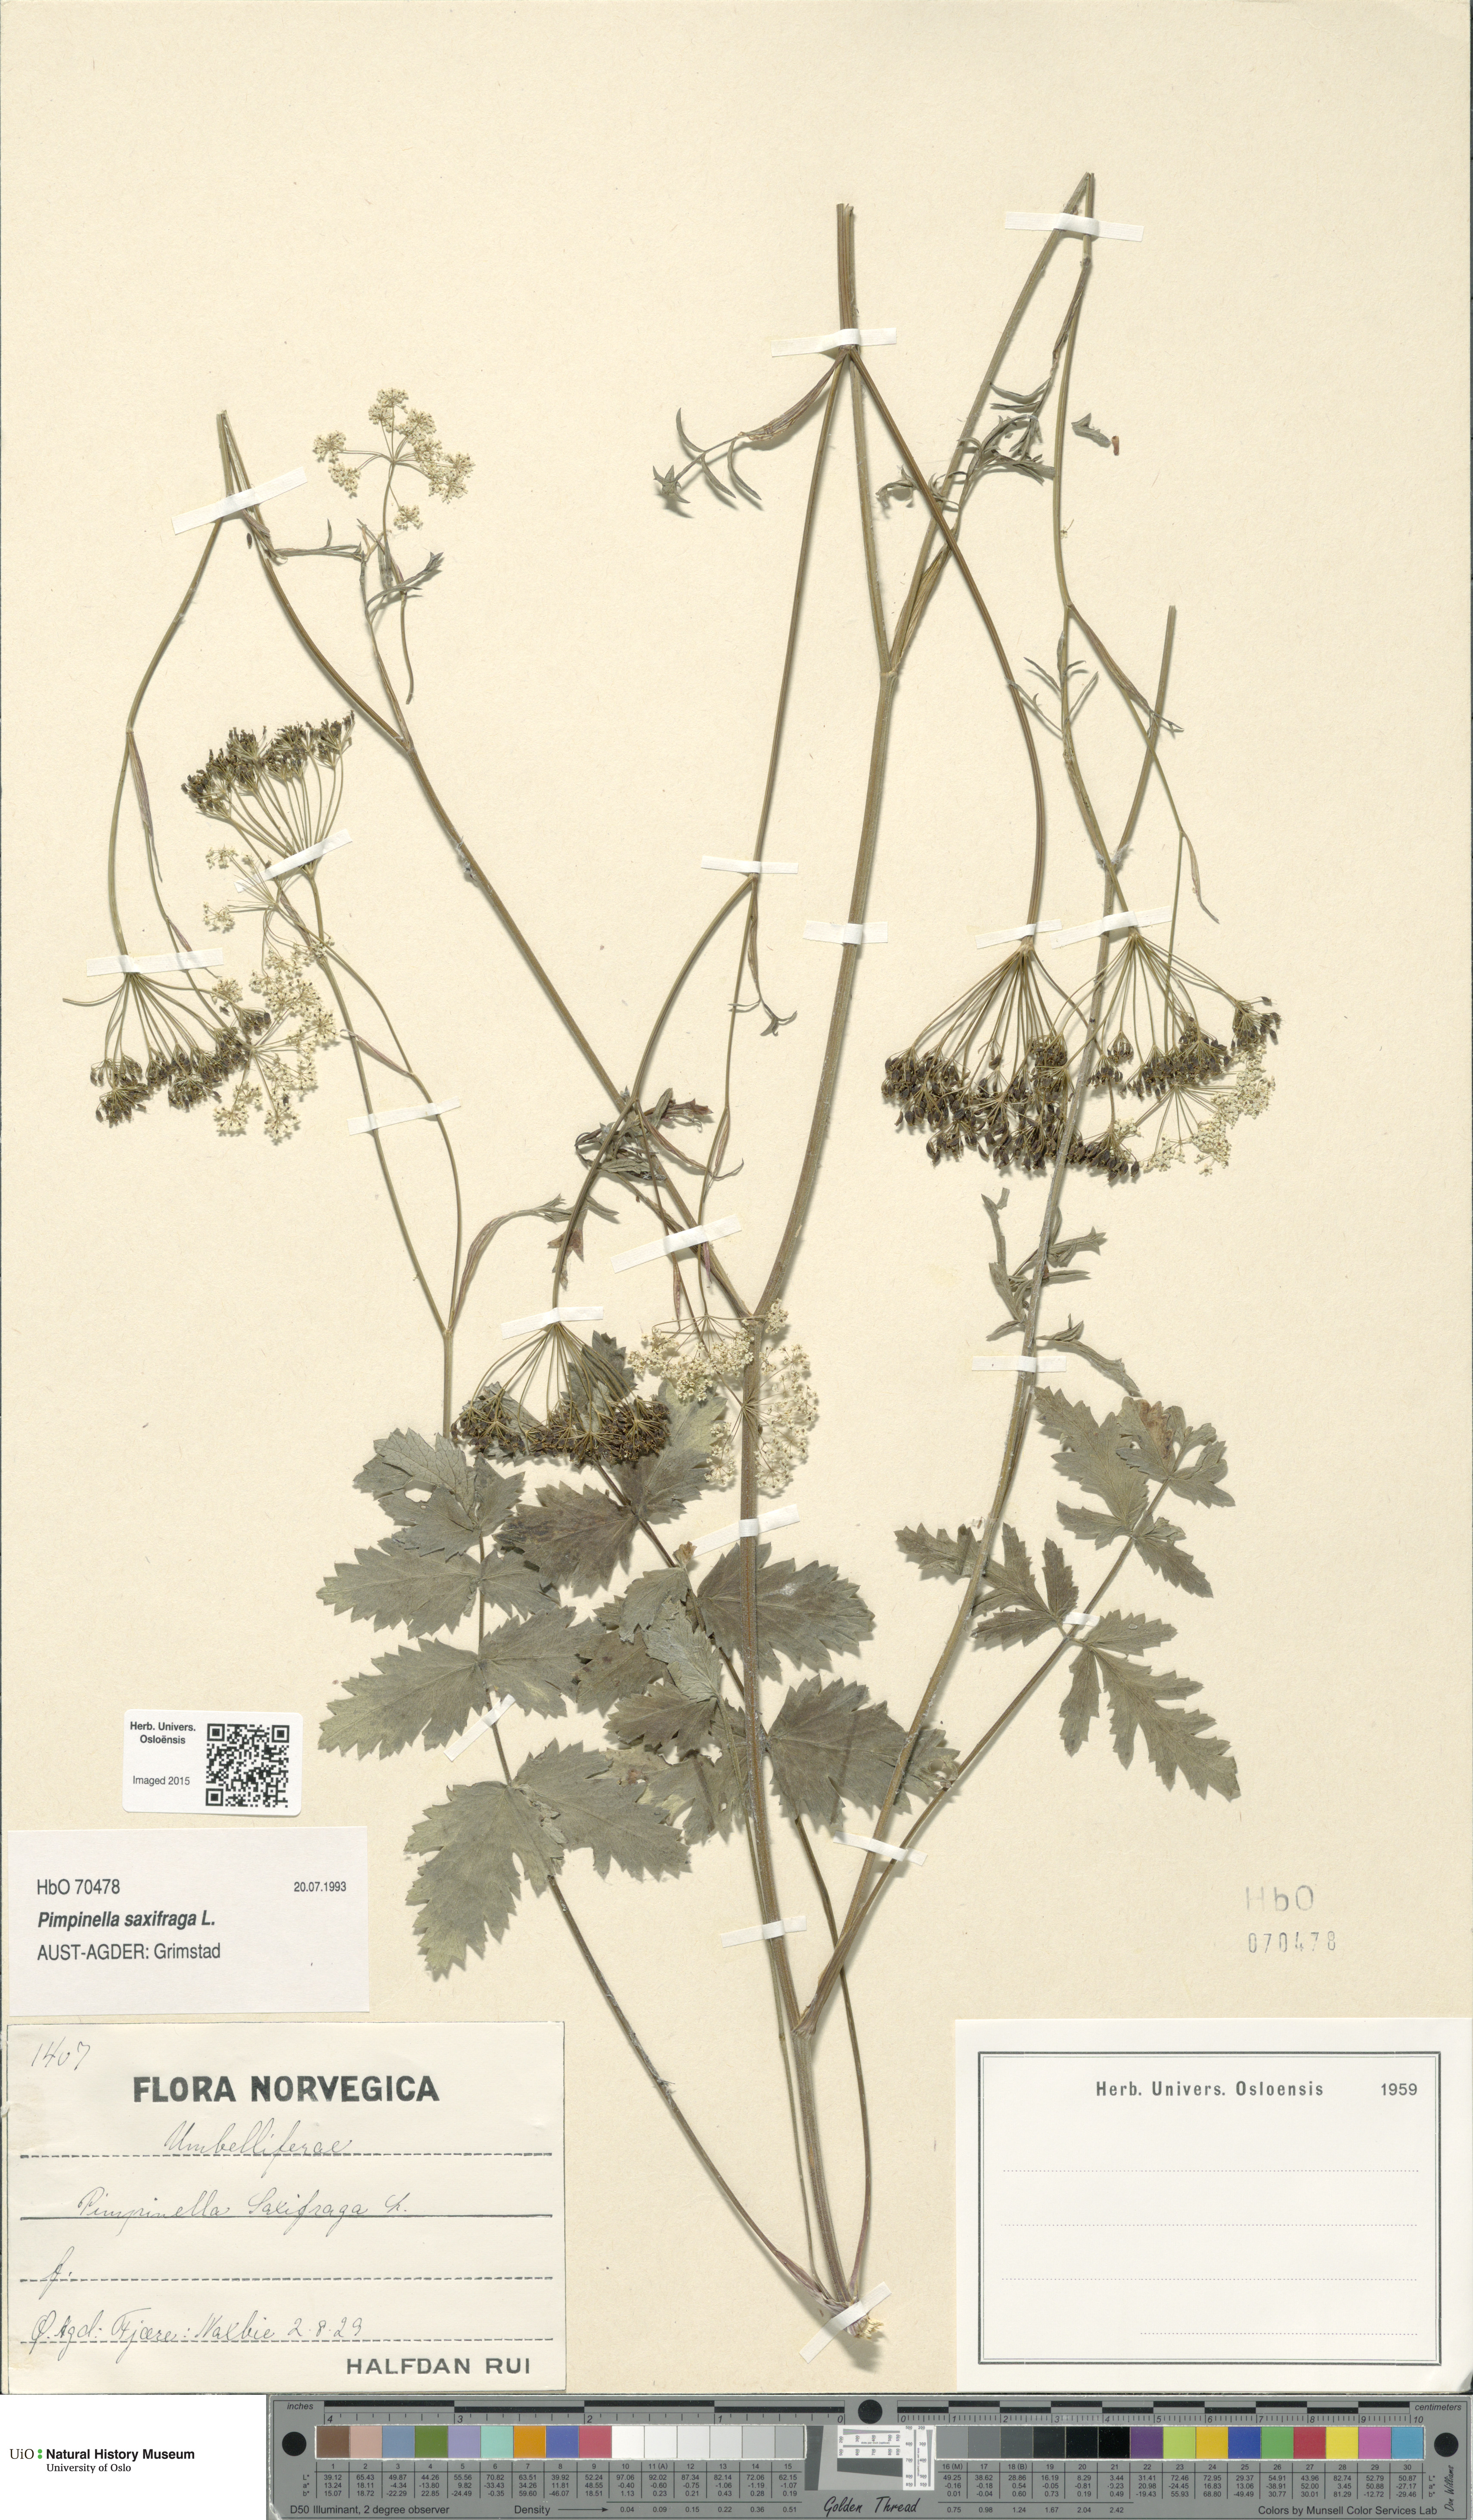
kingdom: Plantae
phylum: Tracheophyta
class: Magnoliopsida
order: Apiales
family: Apiaceae
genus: Pimpinella
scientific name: Pimpinella saxifraga
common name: Burnet-saxifrage
